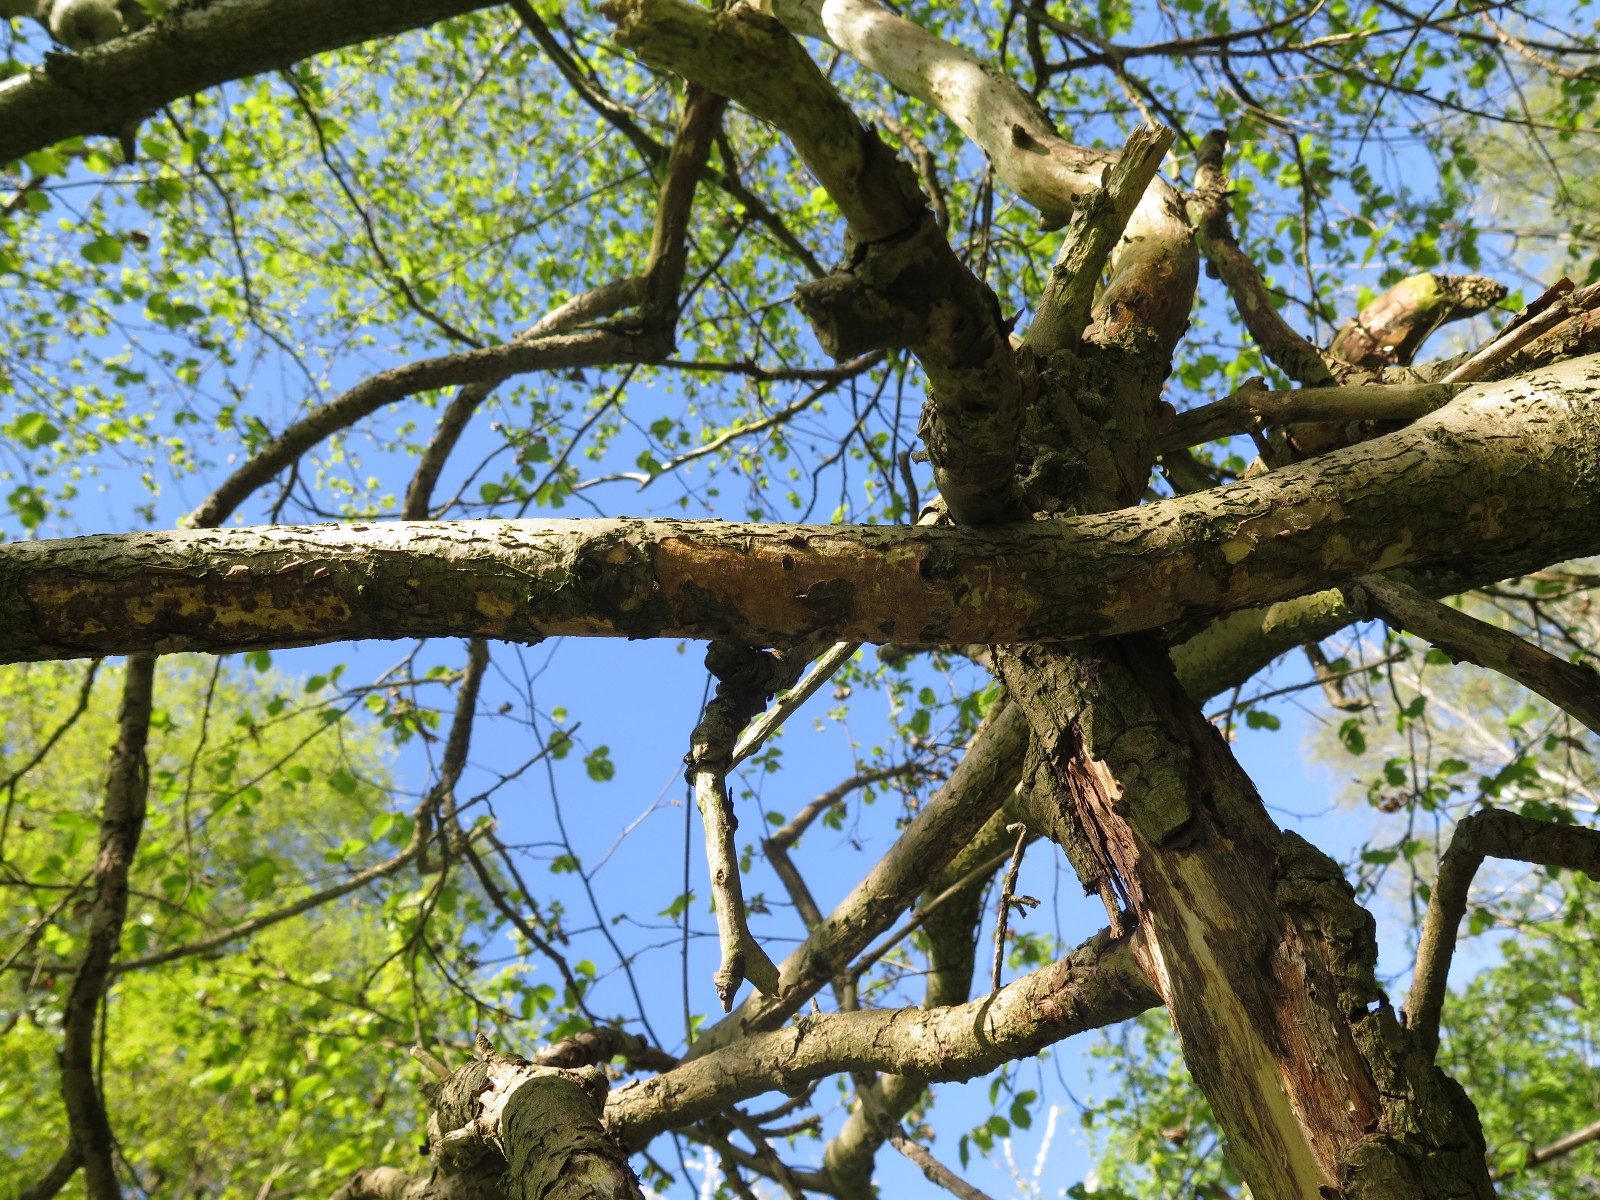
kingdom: Fungi
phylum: Basidiomycota
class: Agaricomycetes
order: Corticiales
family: Vuilleminiaceae
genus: Vuilleminia
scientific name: Vuilleminia coryli
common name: hassel-barksprænger
